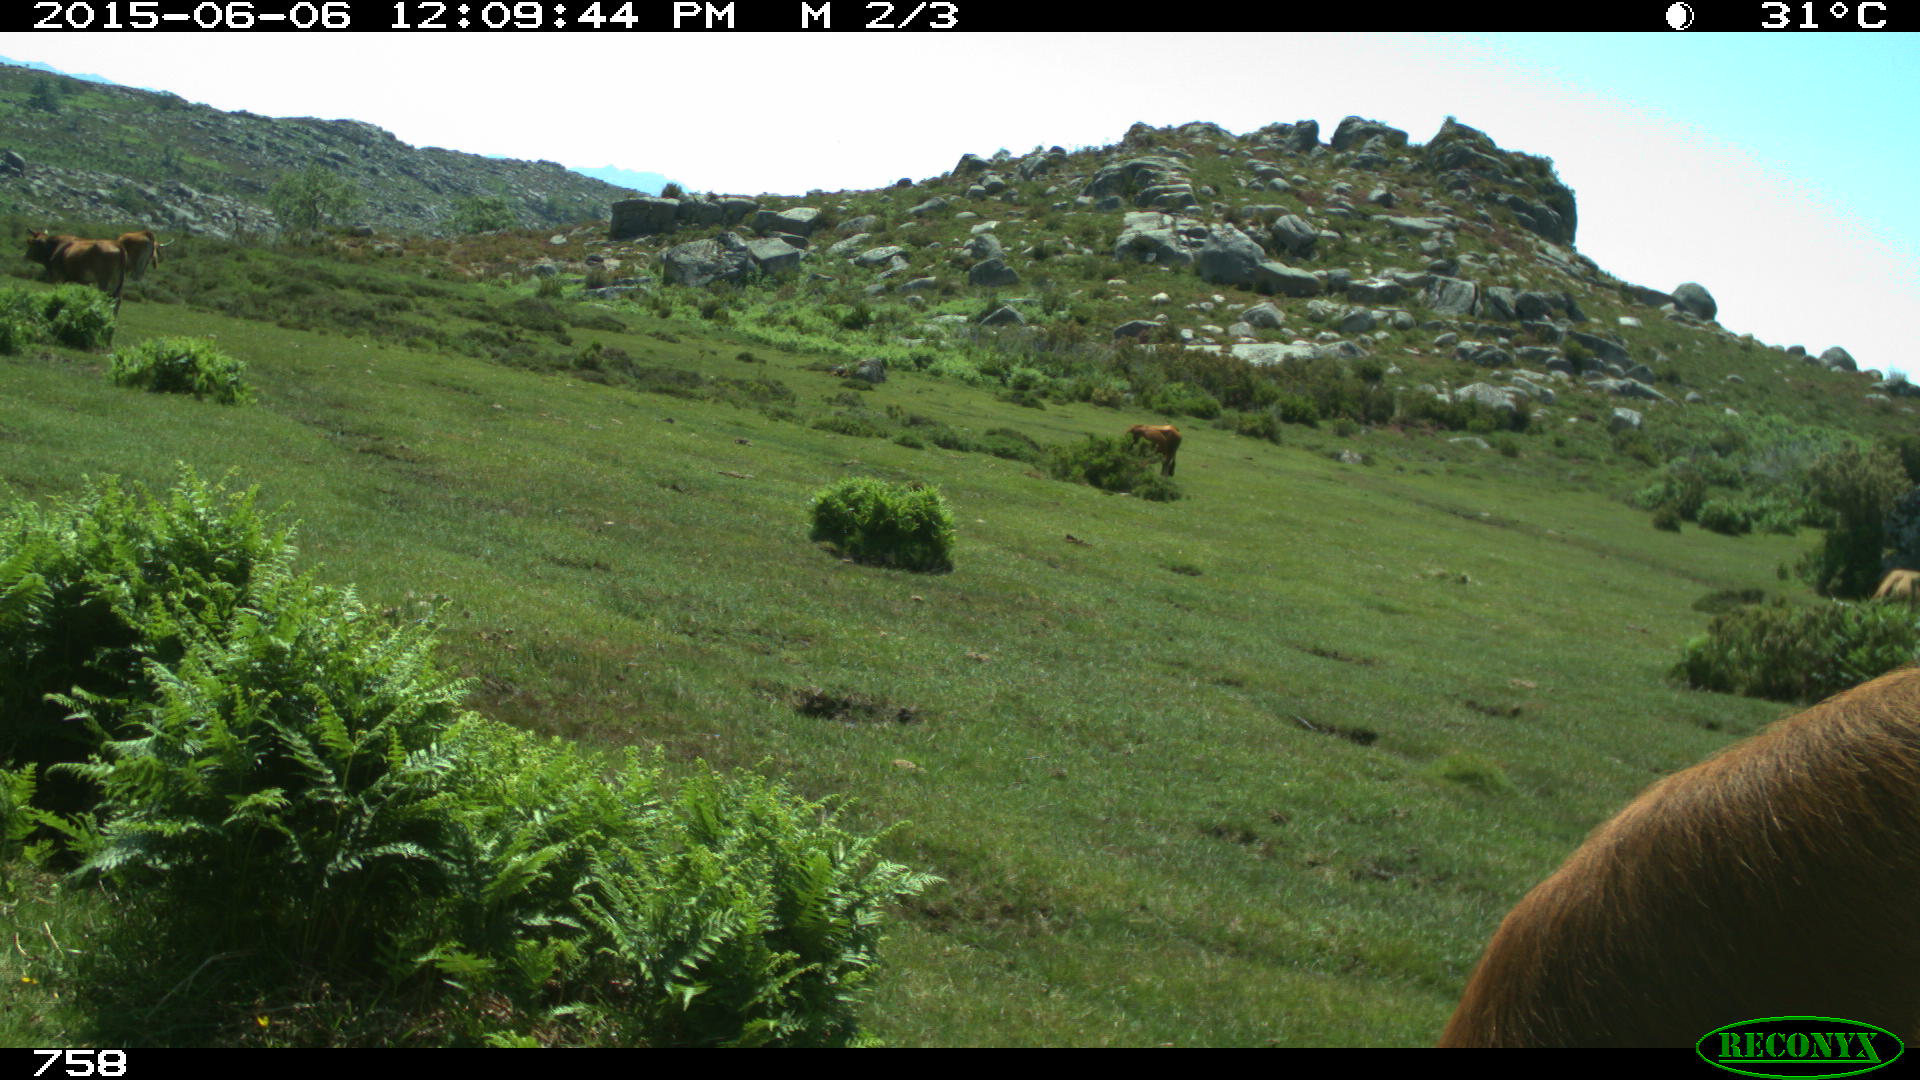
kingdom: Animalia
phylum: Chordata
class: Mammalia
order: Artiodactyla
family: Bovidae
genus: Bos
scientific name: Bos taurus
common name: Domesticated cattle
